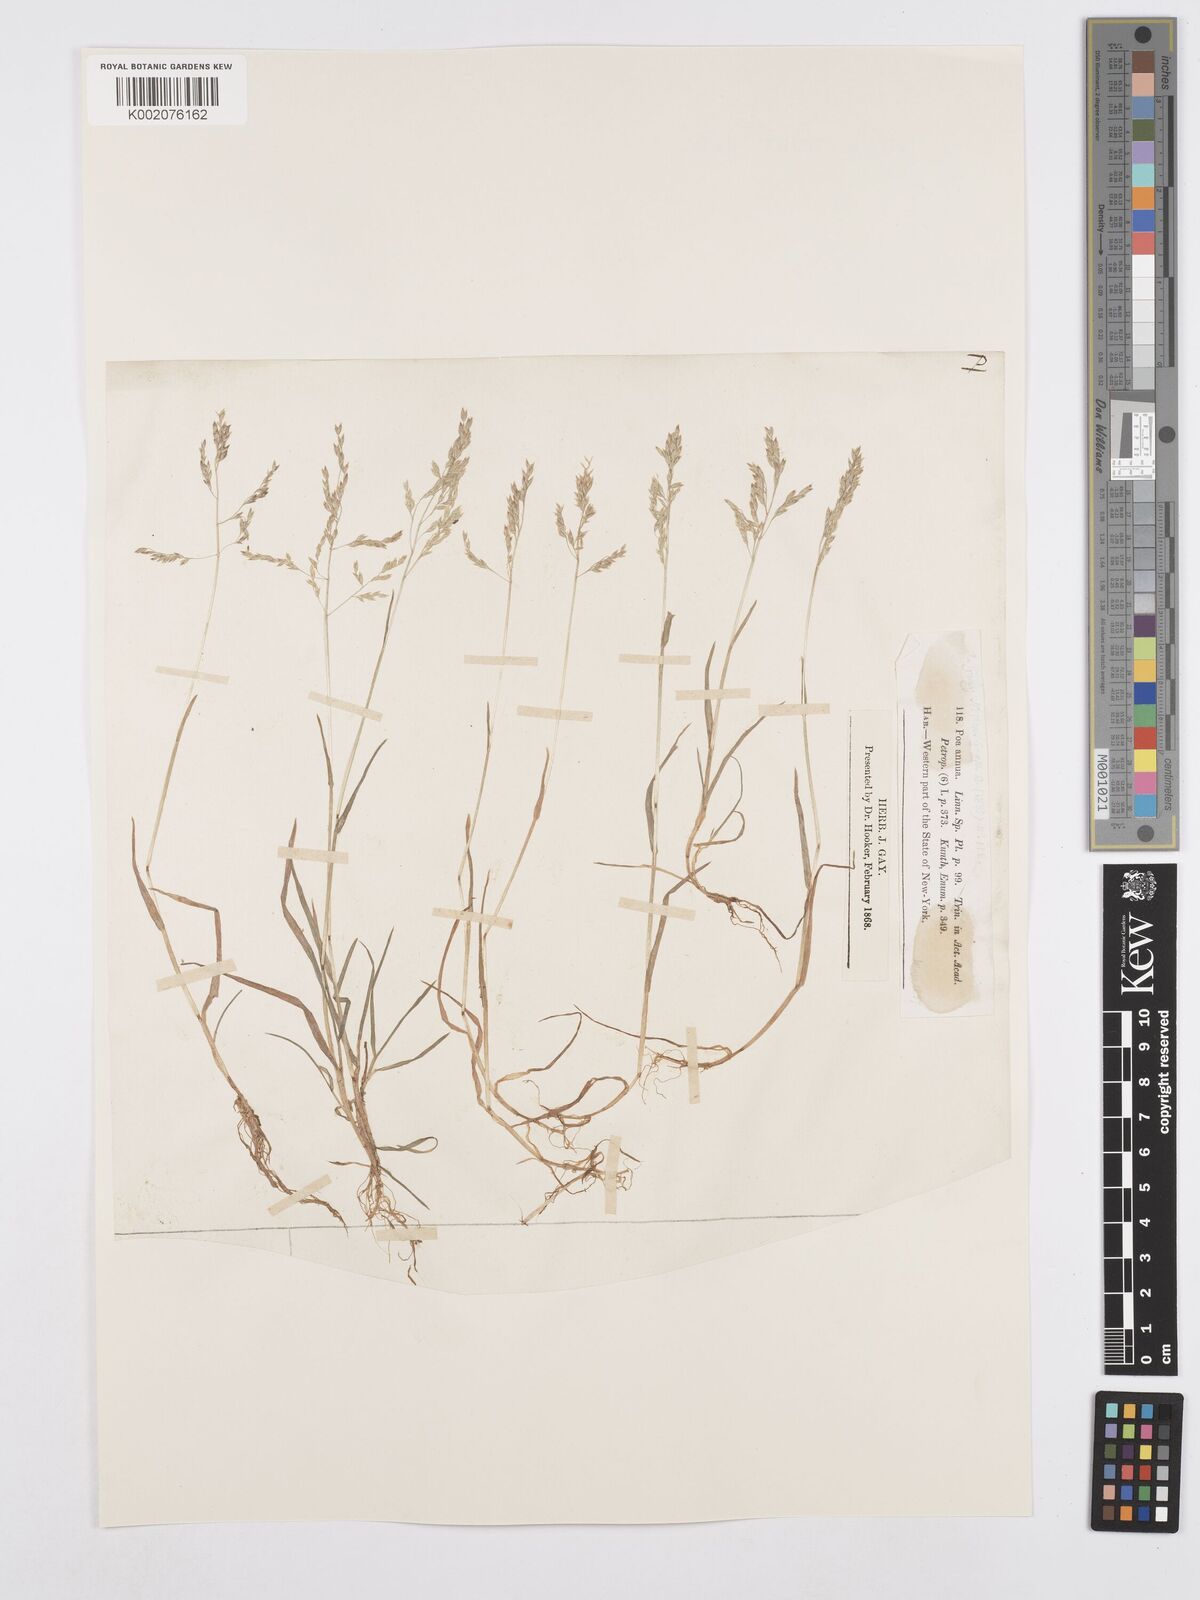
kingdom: Plantae
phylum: Tracheophyta
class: Liliopsida
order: Poales
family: Poaceae
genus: Poa
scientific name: Poa annua
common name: Annual bluegrass
